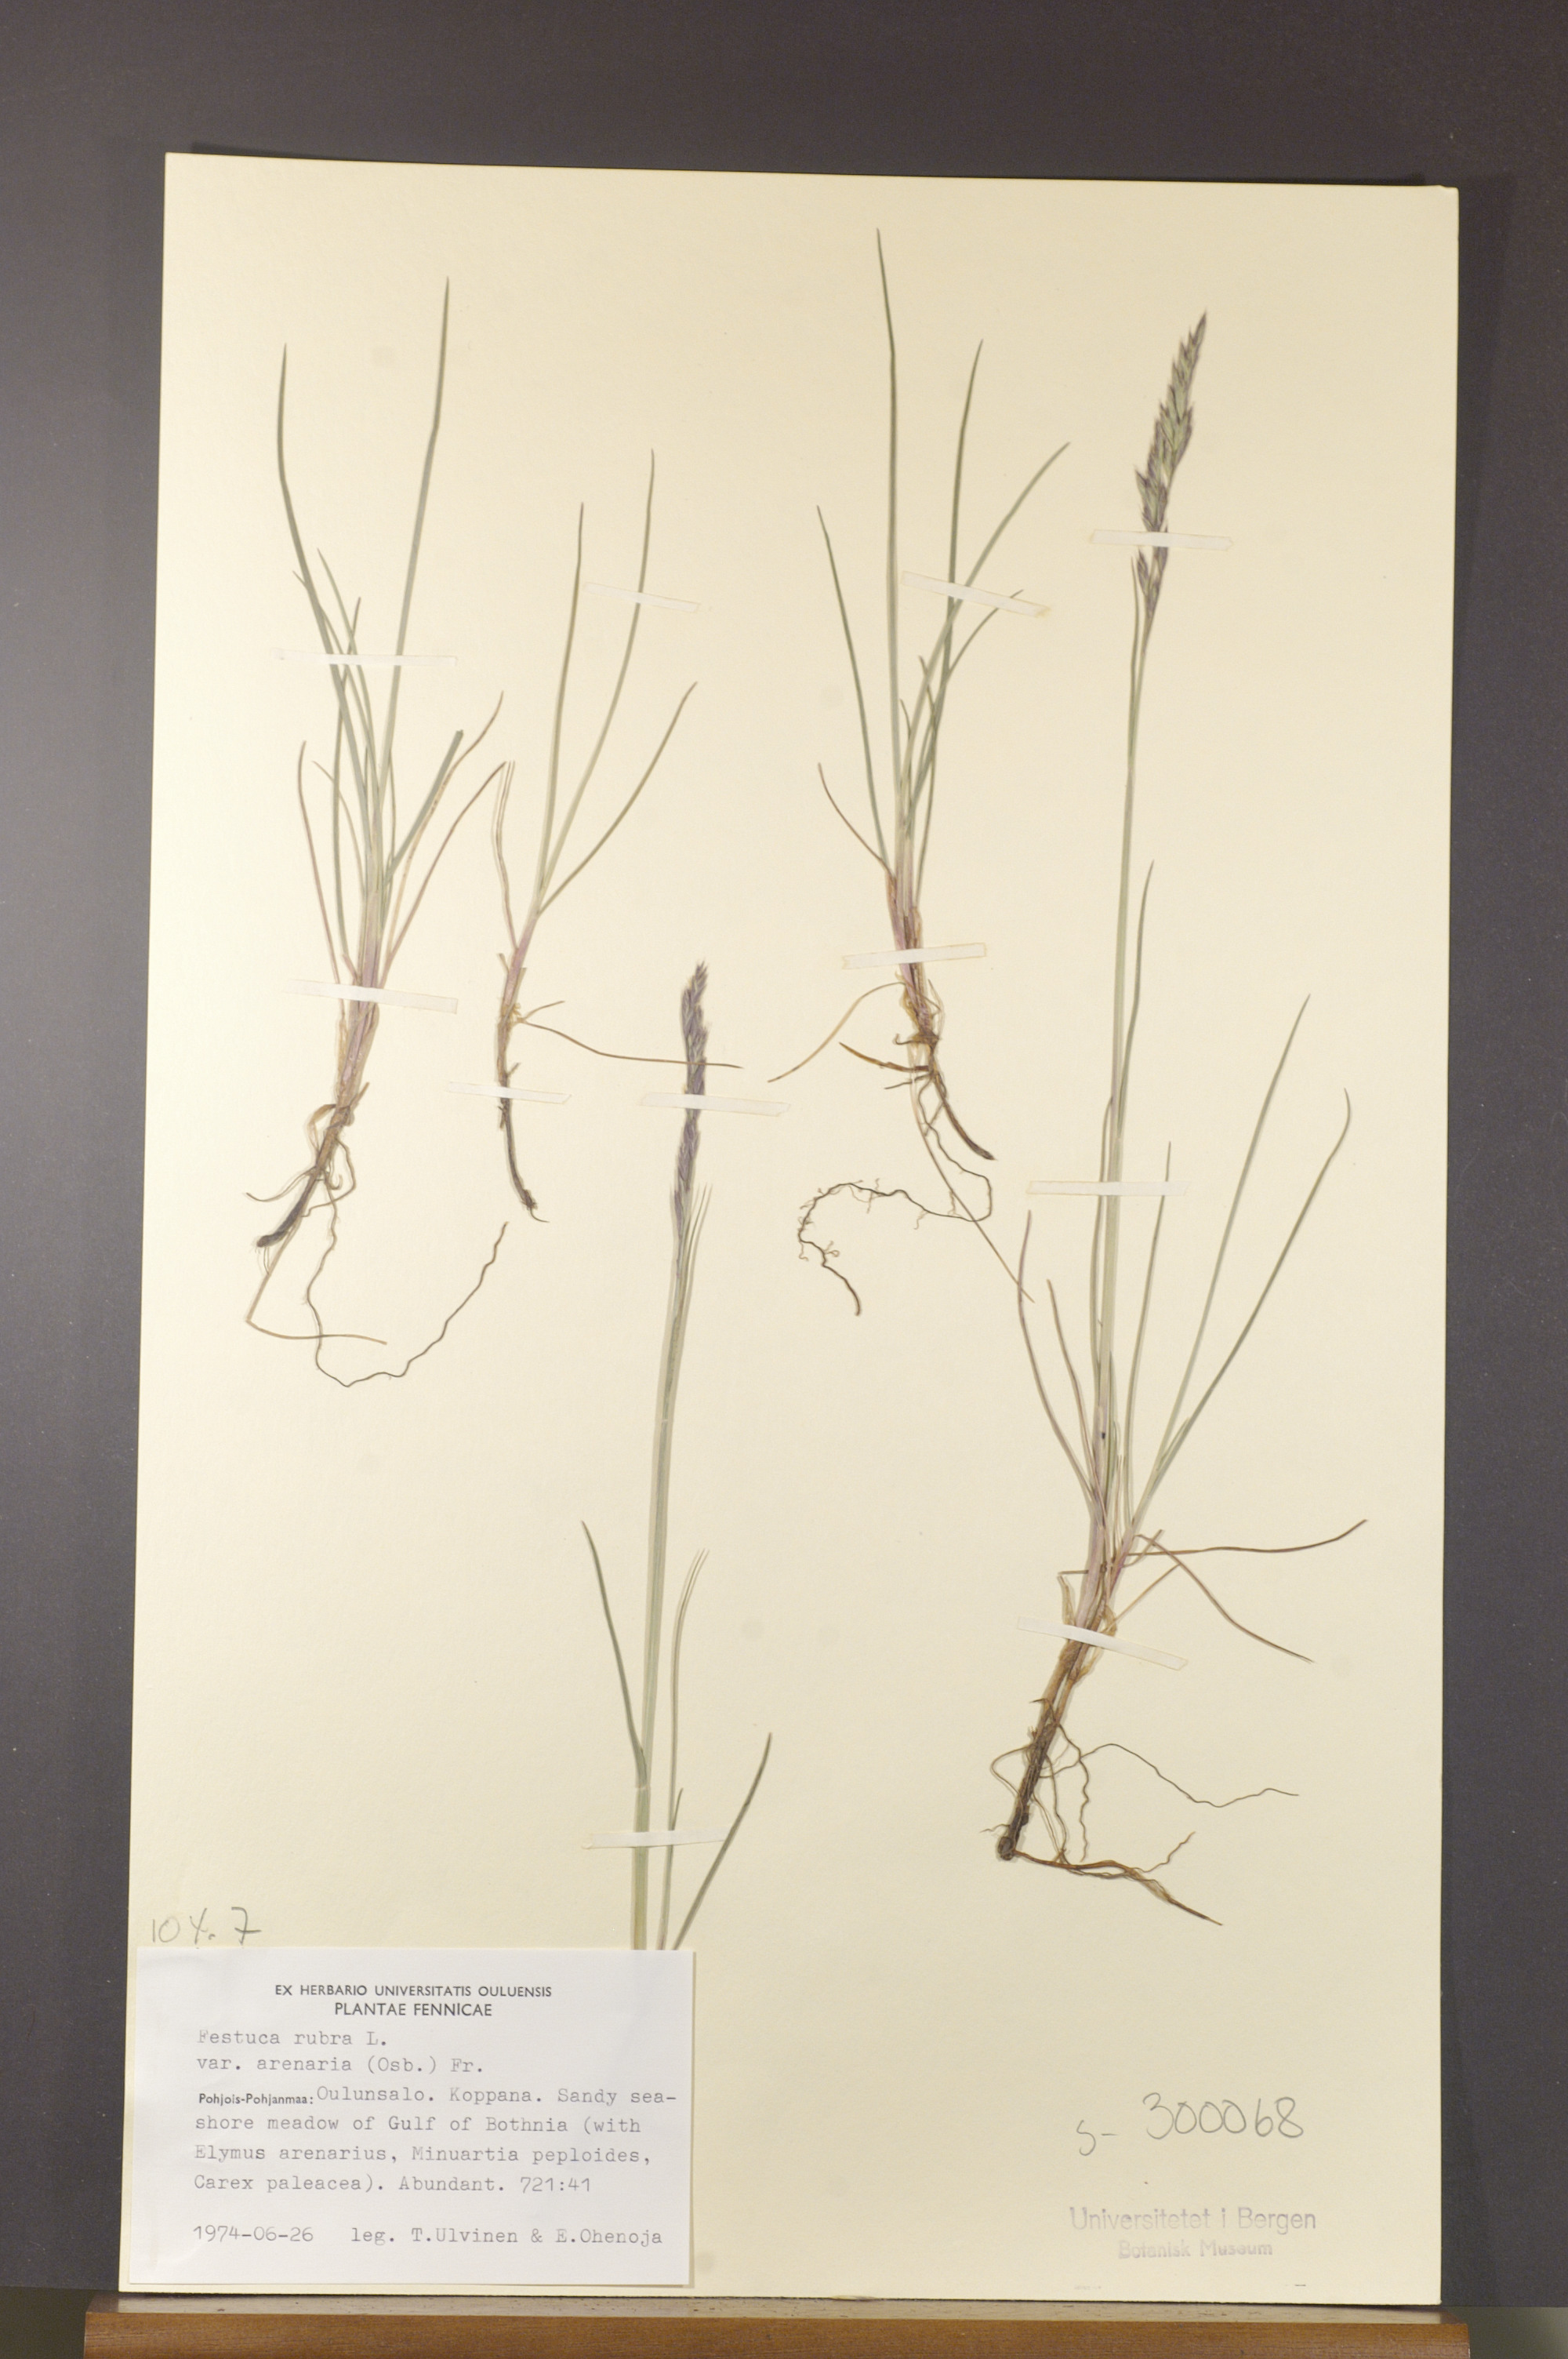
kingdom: Plantae
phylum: Tracheophyta
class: Liliopsida
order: Poales
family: Poaceae
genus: Festuca
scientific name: Festuca rubra
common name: Red fescue
